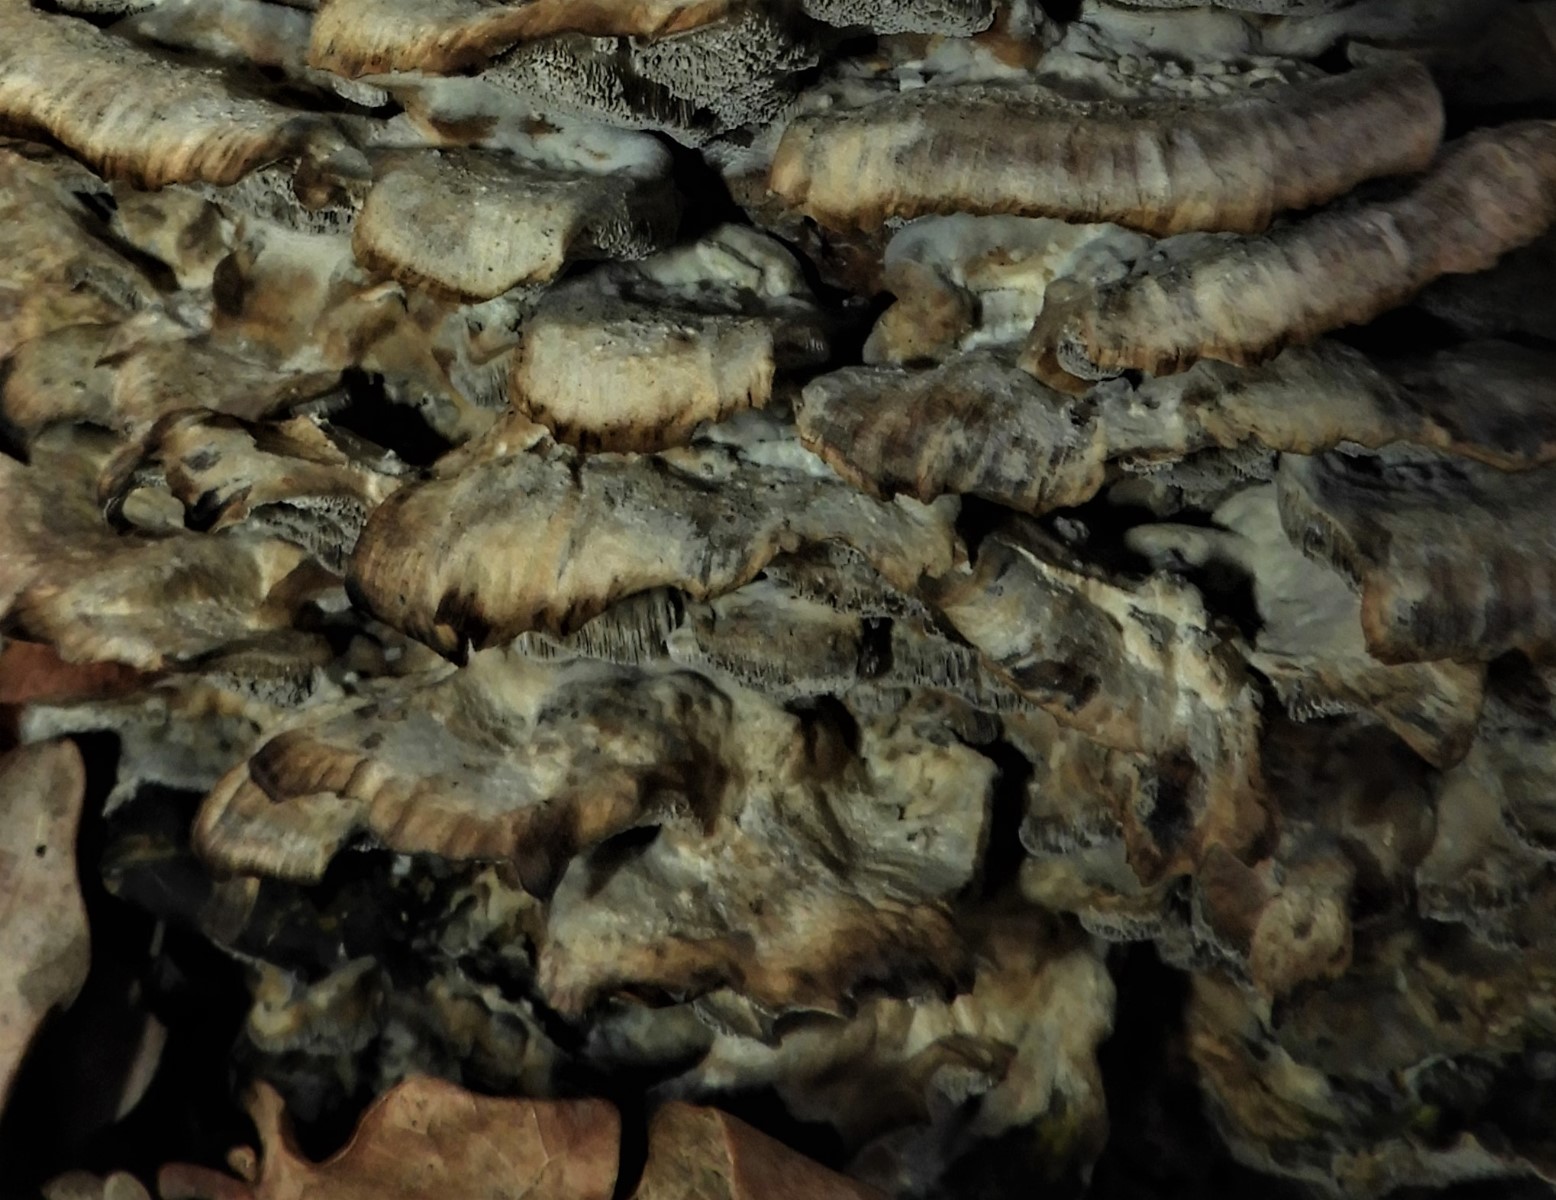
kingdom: Fungi
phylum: Basidiomycota
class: Agaricomycetes
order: Polyporales
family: Phanerochaetaceae
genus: Bjerkandera
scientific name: Bjerkandera adusta
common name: sveden sodporesvamp
